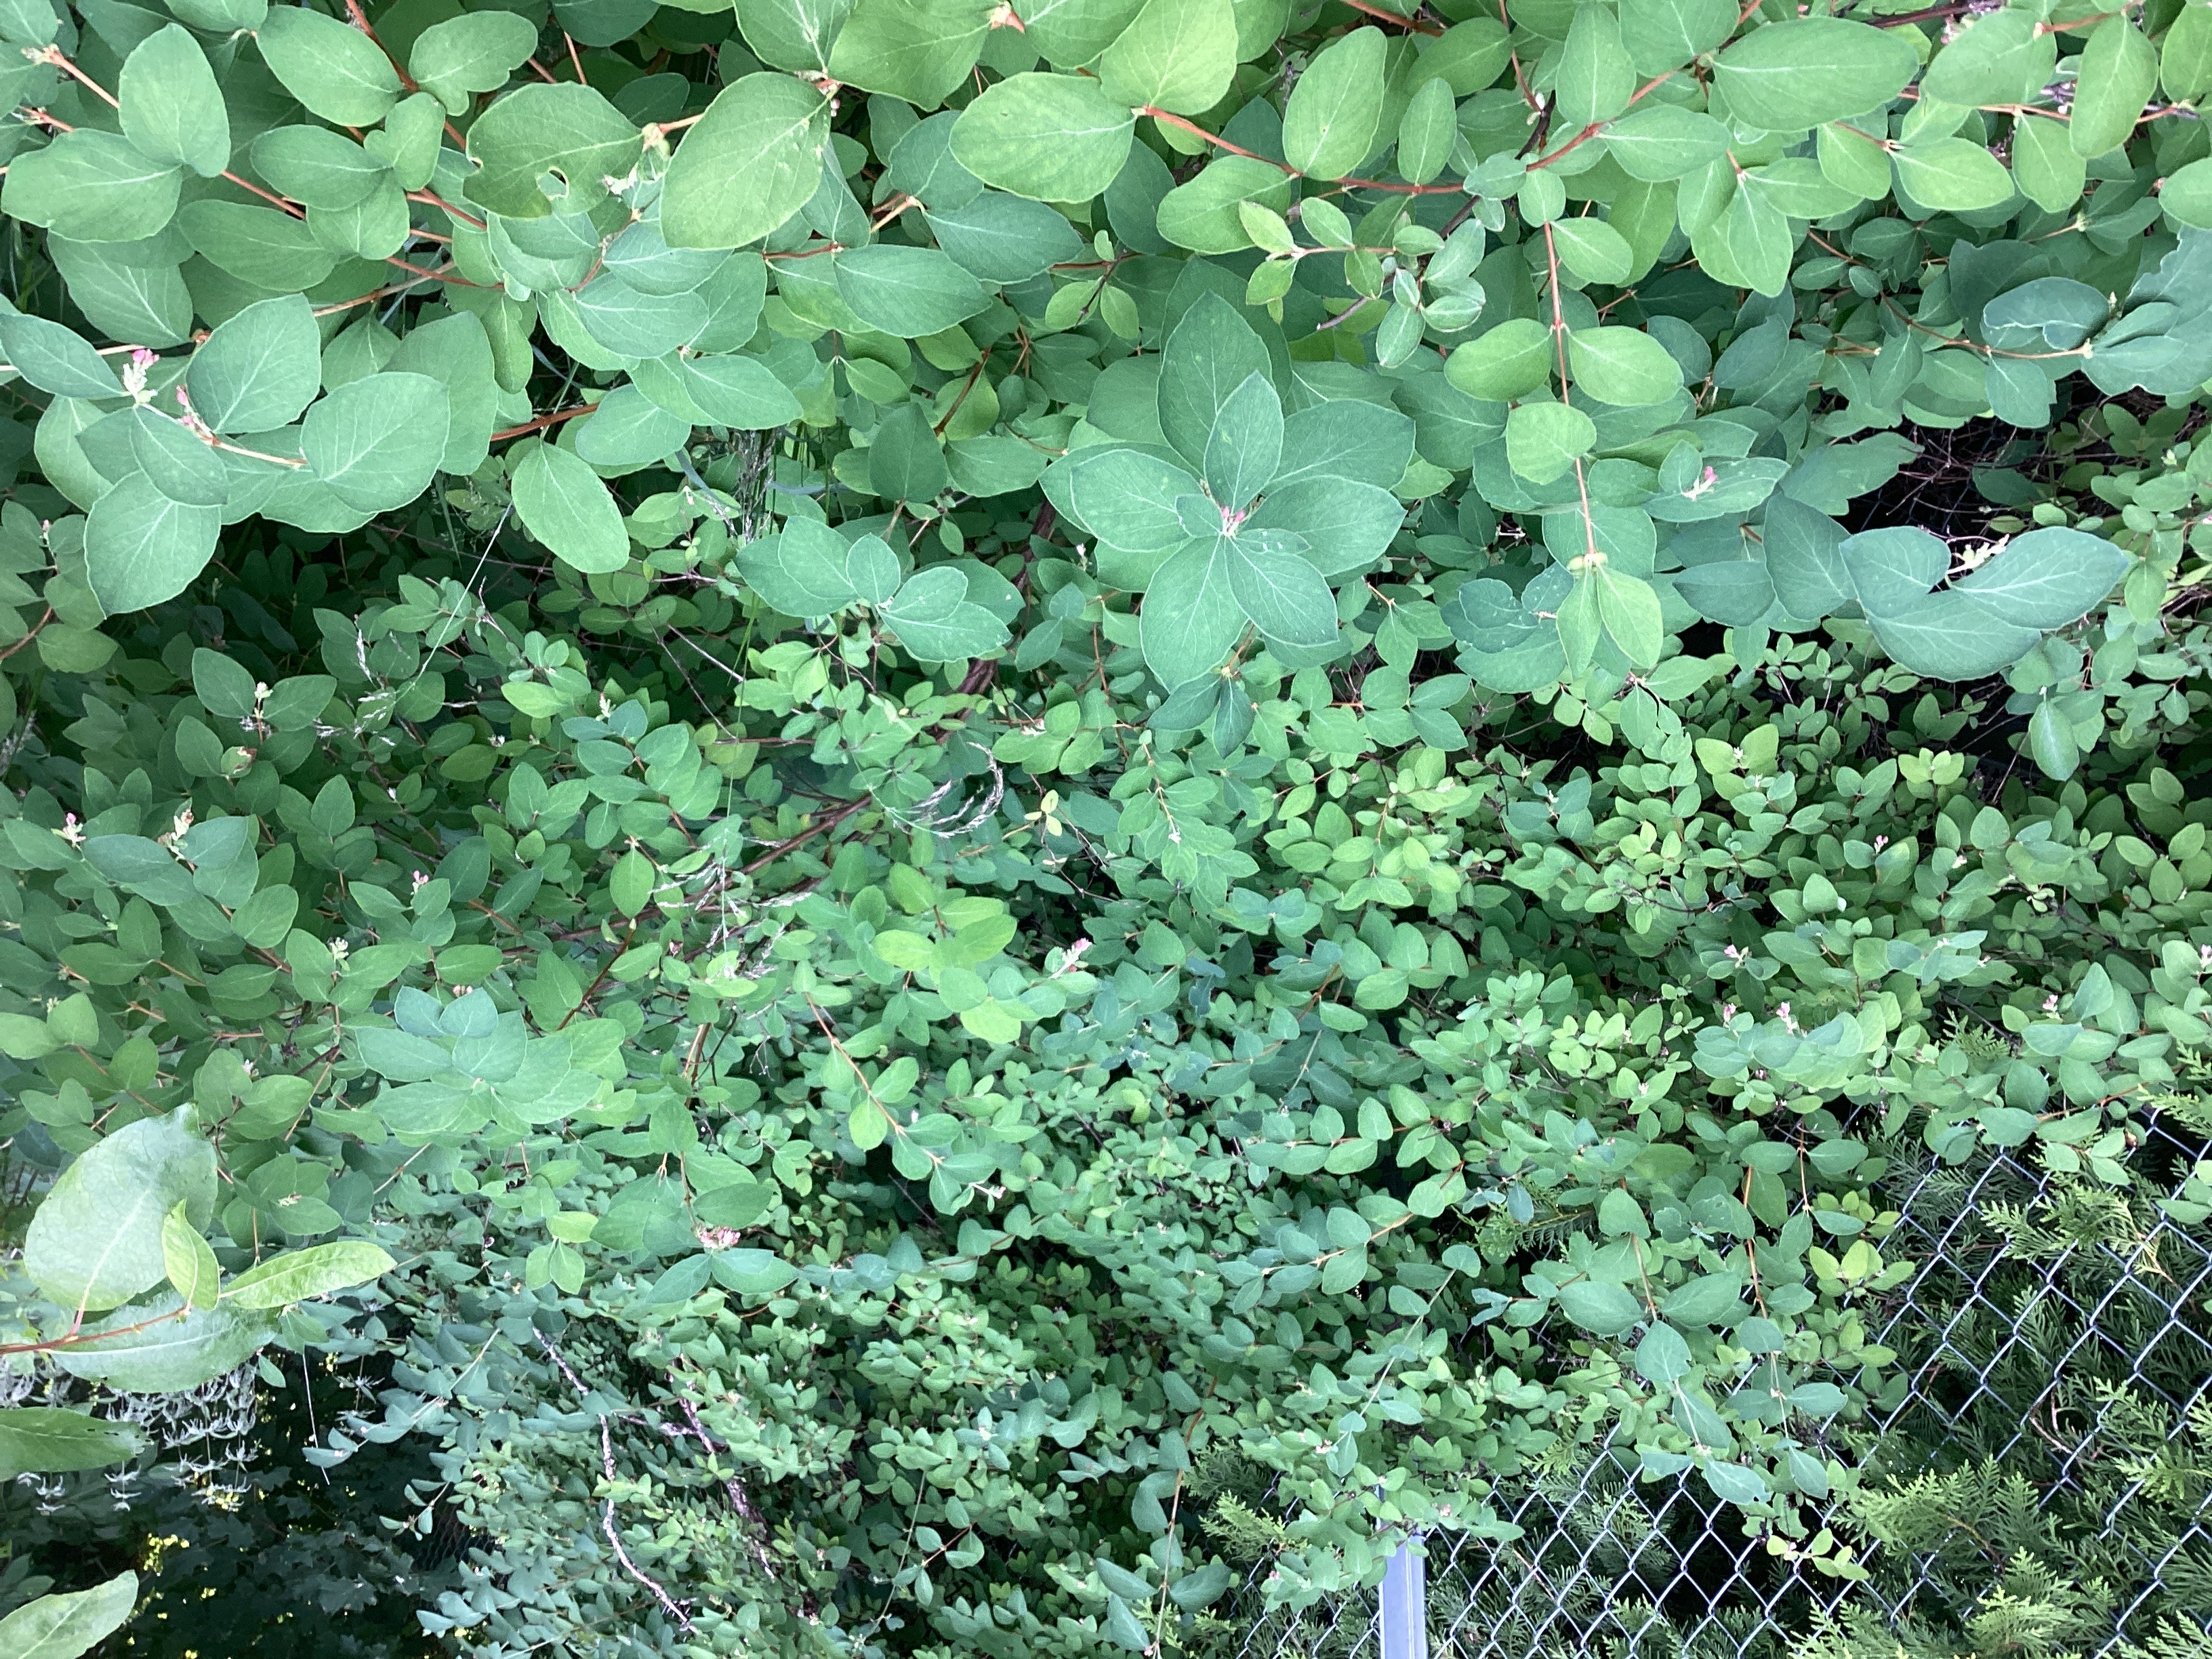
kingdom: Plantae
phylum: Tracheophyta
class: Magnoliopsida
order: Dipsacales
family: Caprifoliaceae
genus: Symphoricarpos
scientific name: Symphoricarpos albus
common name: snøbær
